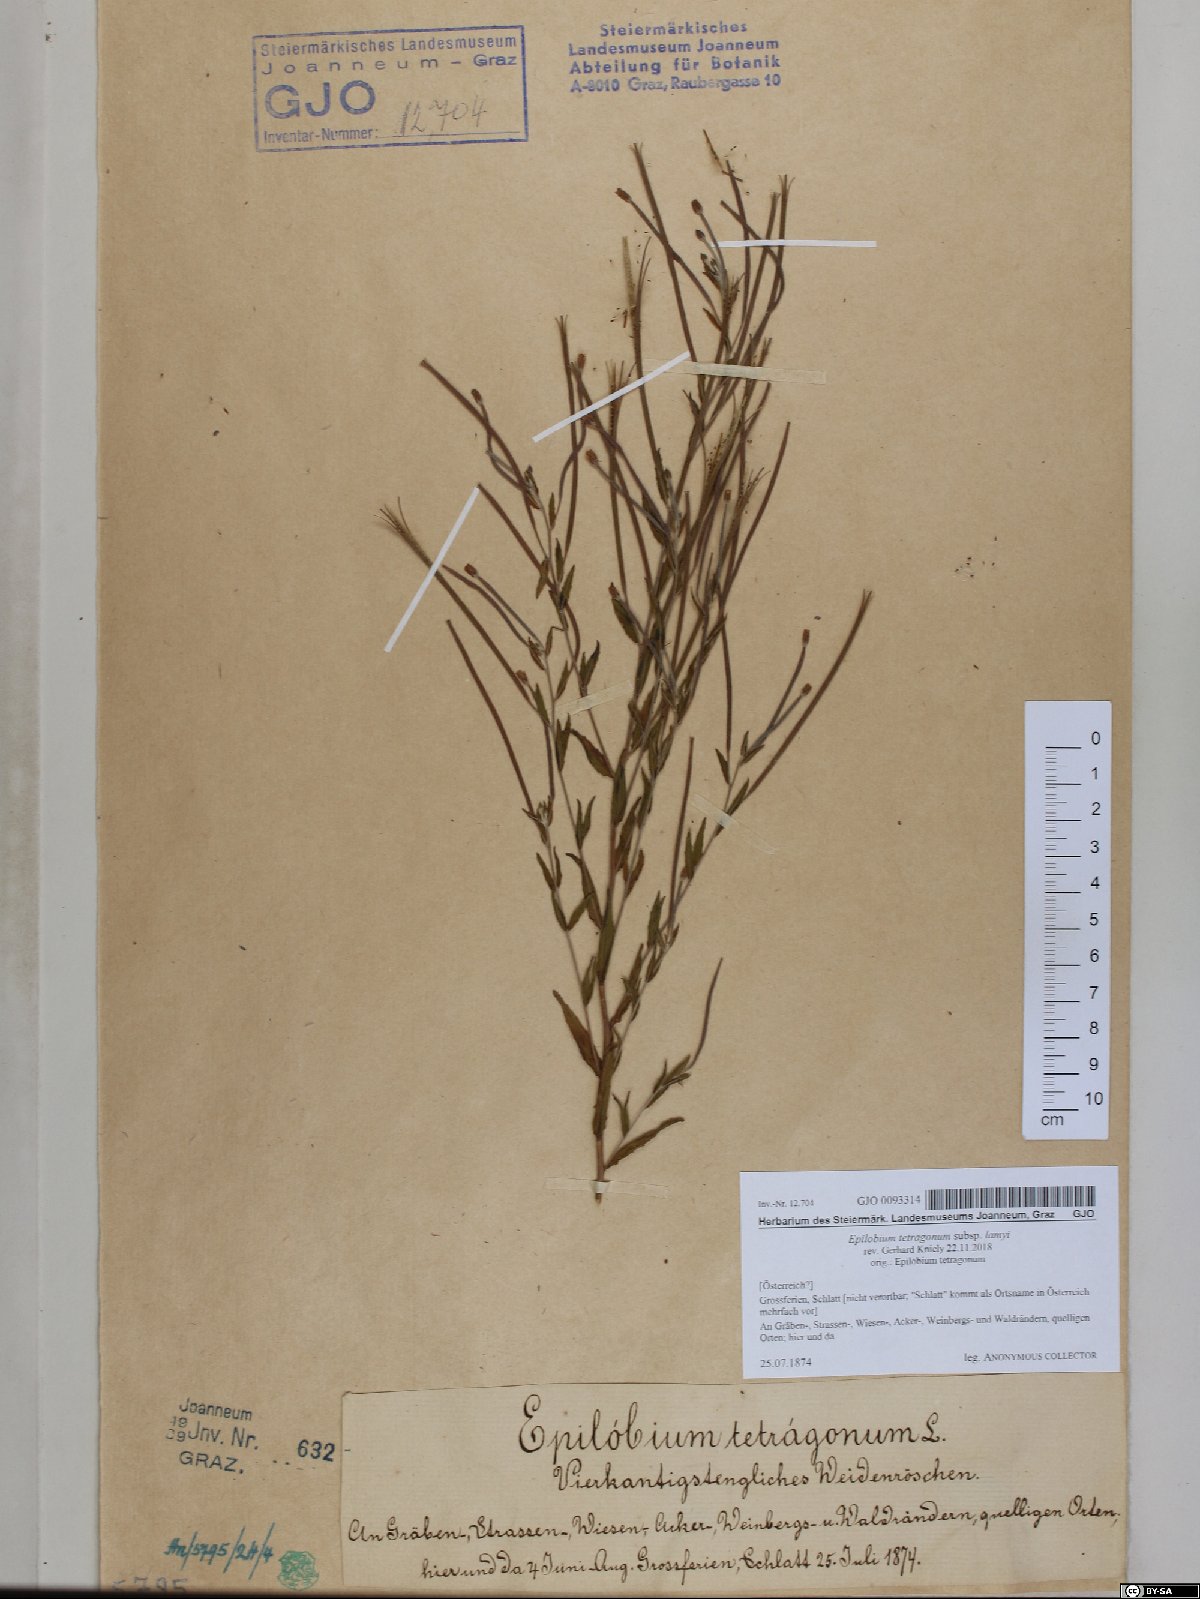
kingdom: Plantae
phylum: Tracheophyta
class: Magnoliopsida
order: Myrtales
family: Onagraceae
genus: Epilobium
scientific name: Epilobium lamyi
